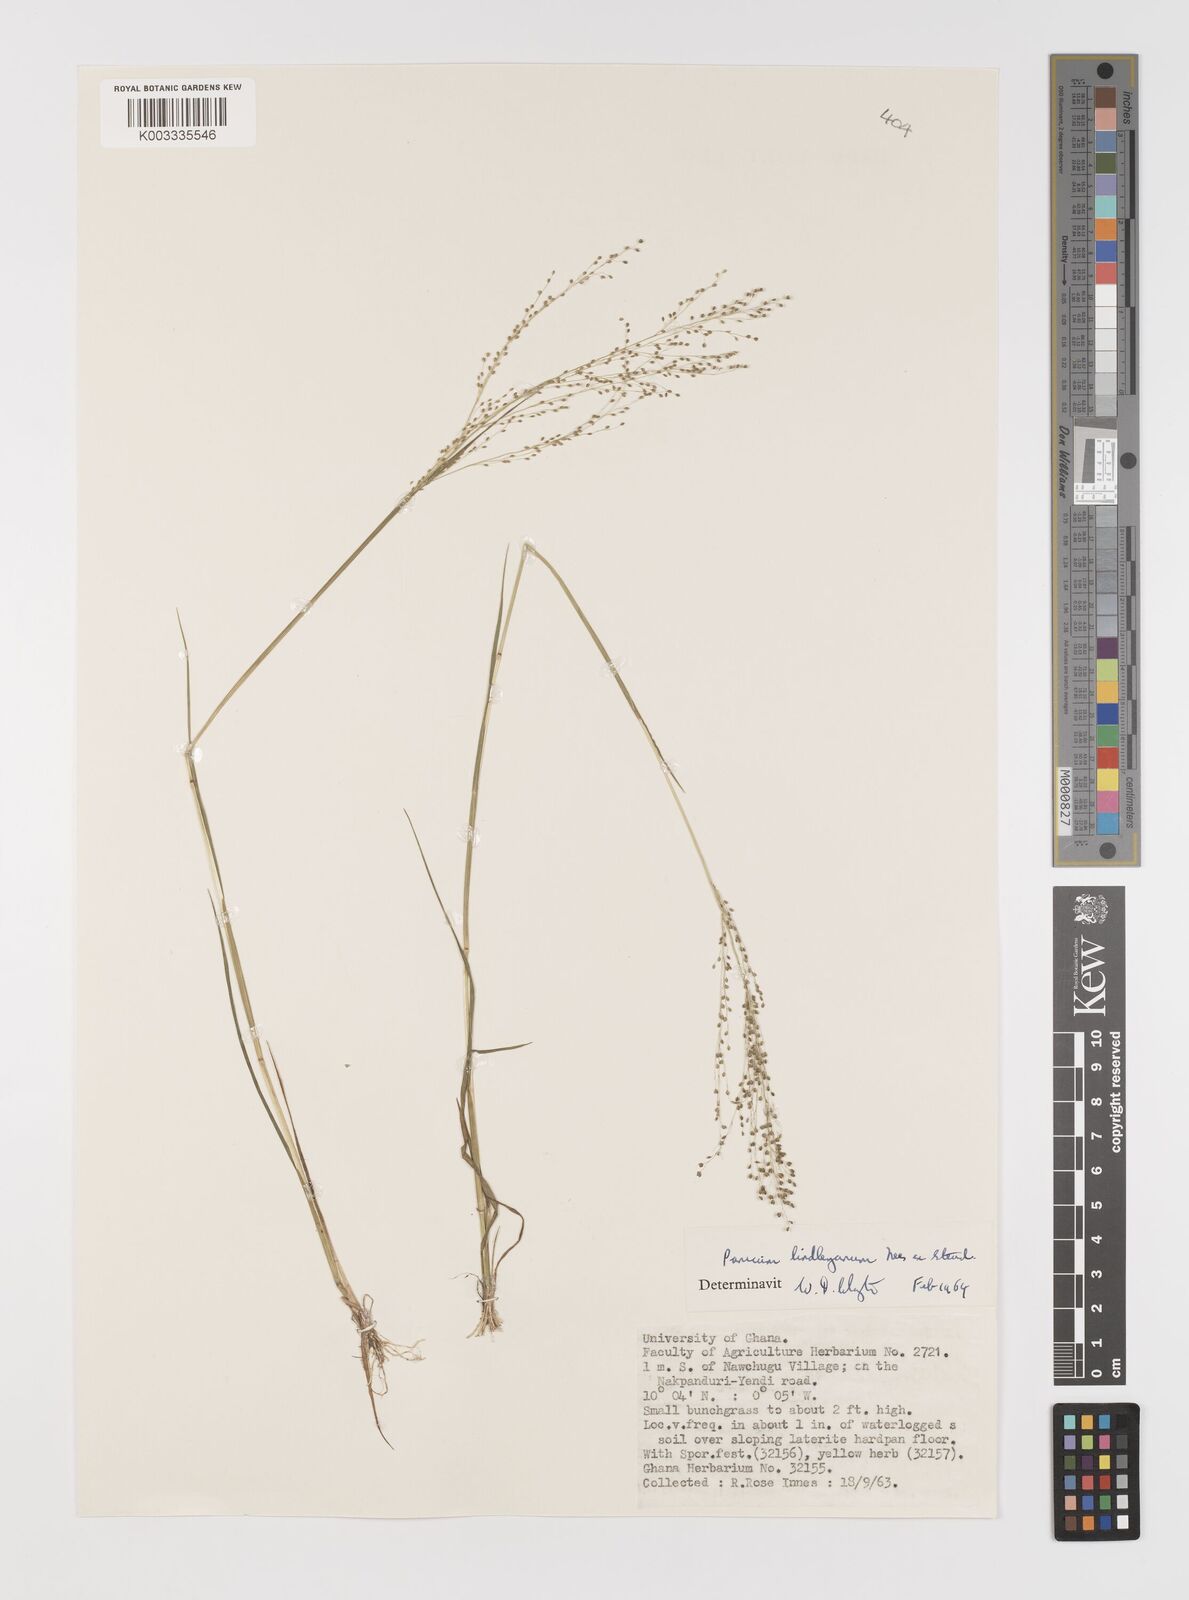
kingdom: Plantae
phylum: Tracheophyta
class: Liliopsida
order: Poales
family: Poaceae
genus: Trichanthecium
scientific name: Trichanthecium tenellum
